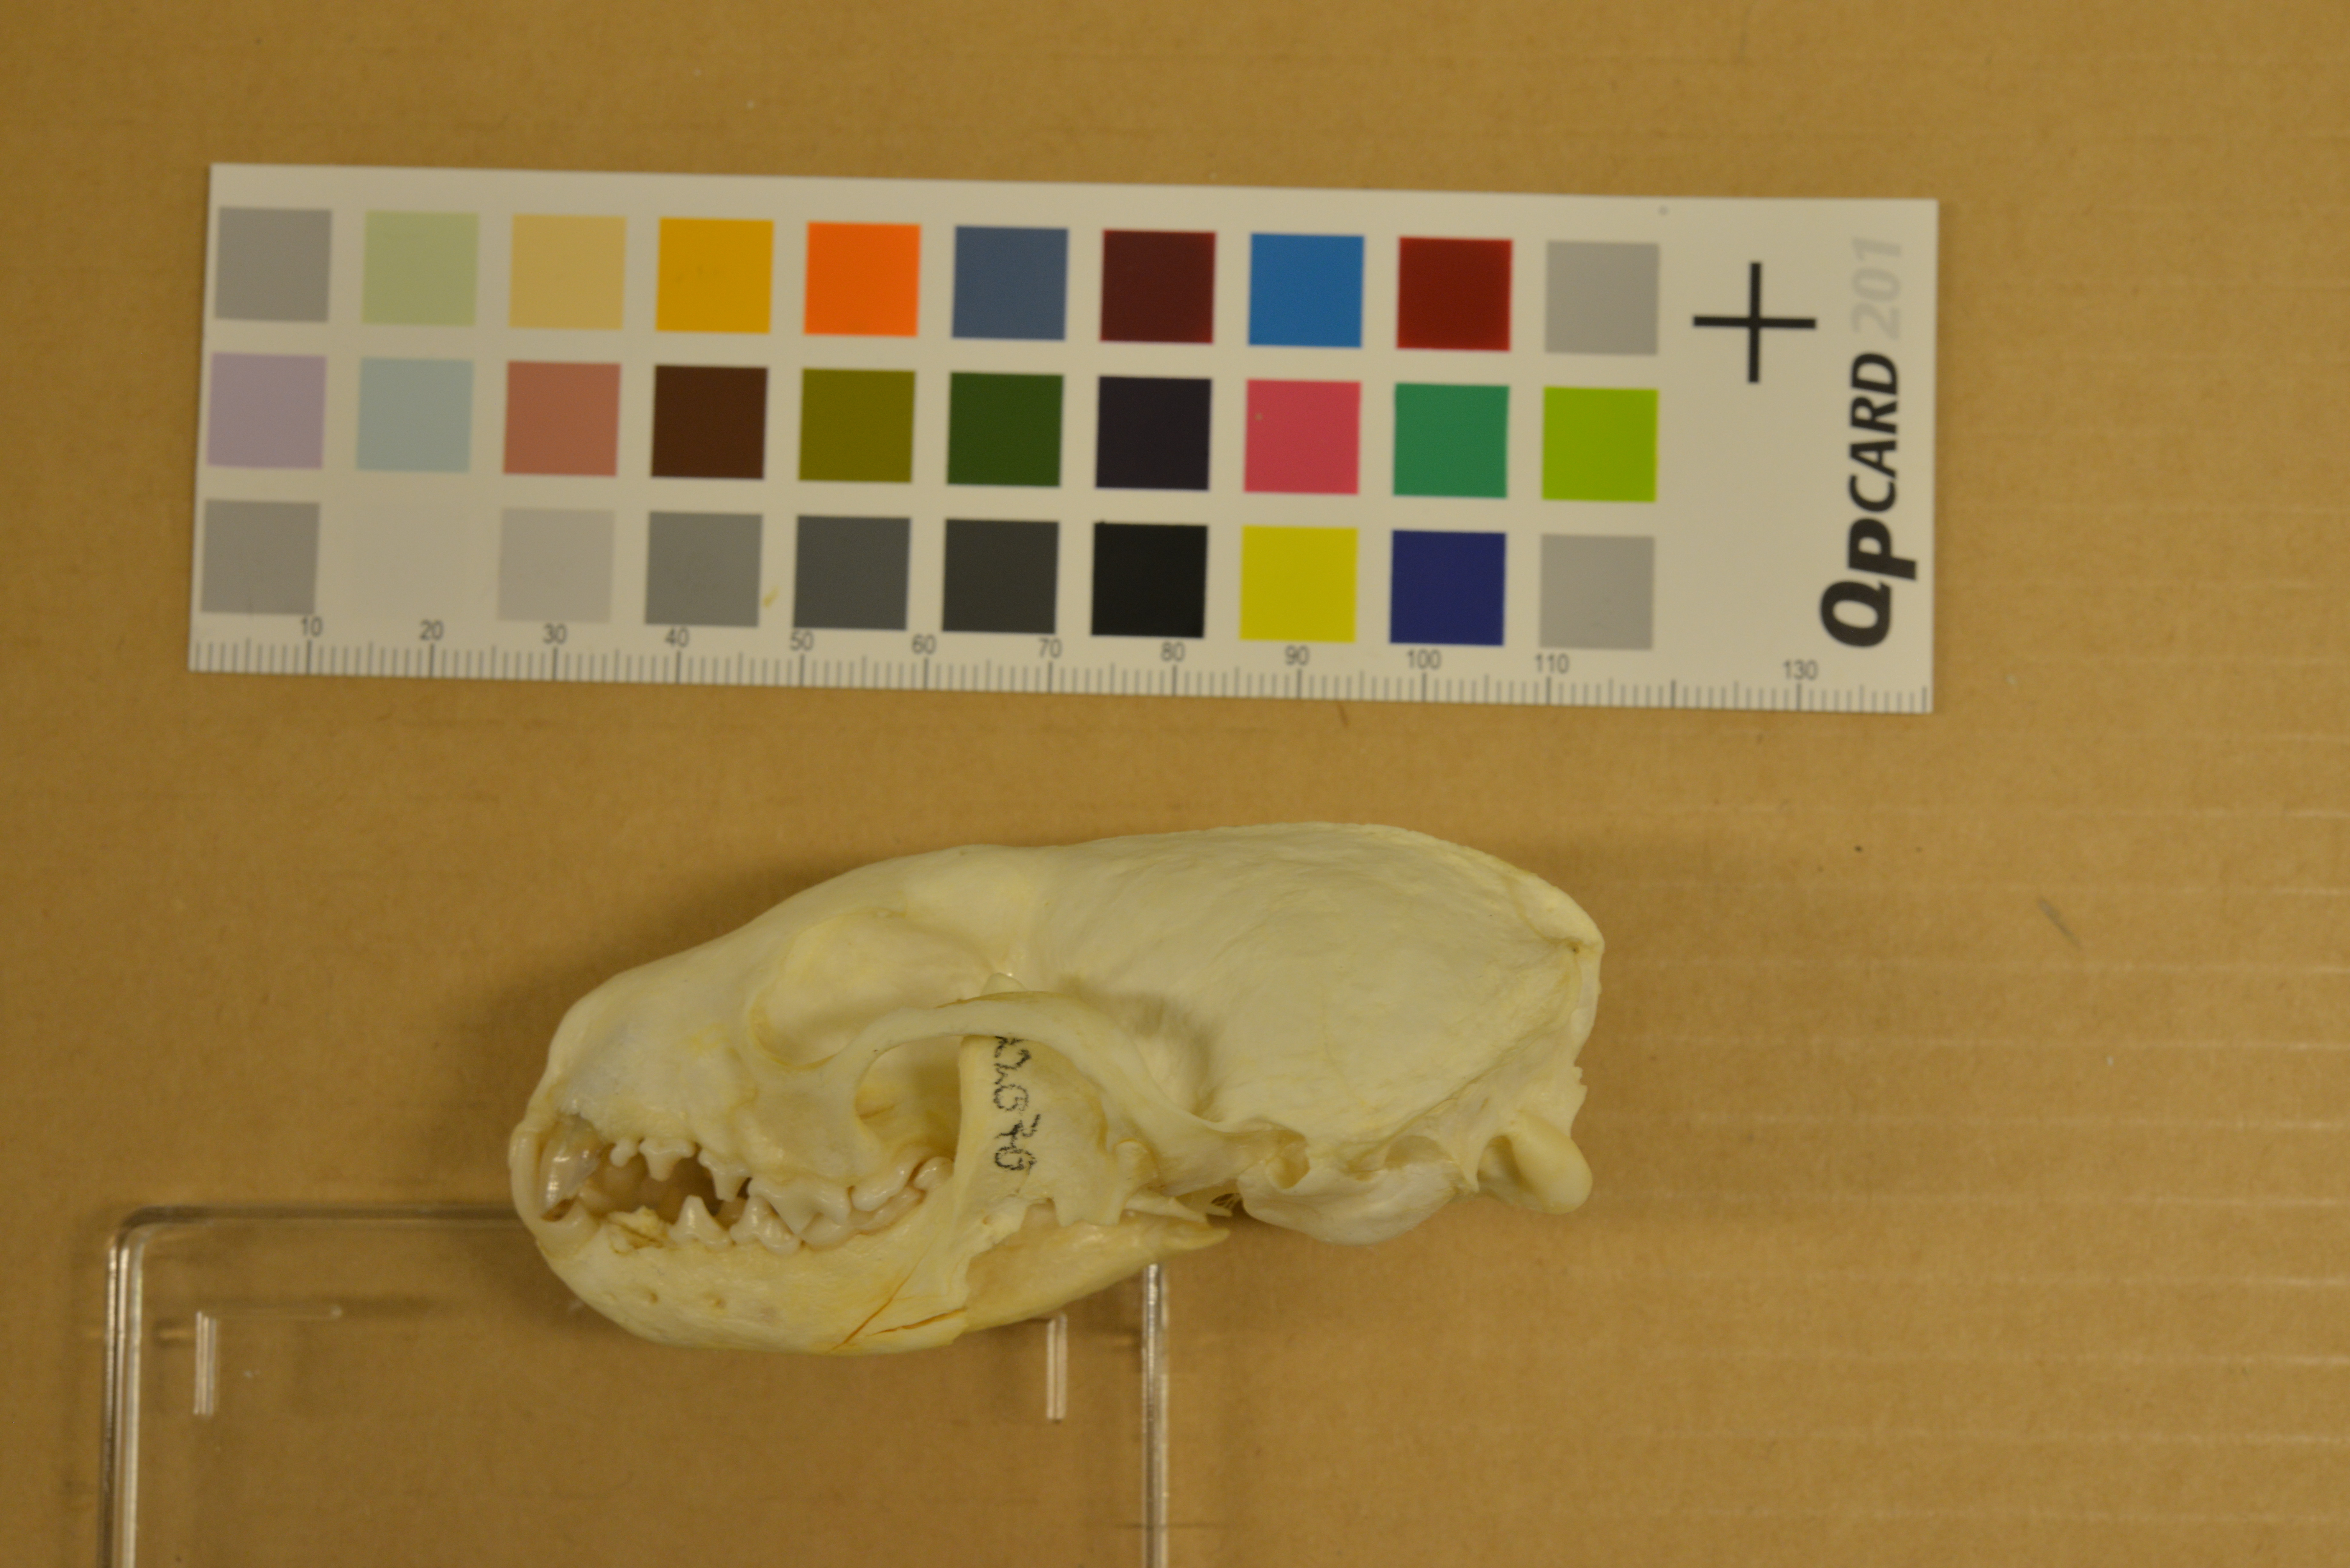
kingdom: Animalia
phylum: Chordata
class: Mammalia
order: Carnivora
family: Mustelidae
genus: Martes
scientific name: Martes martes
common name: European pine marten
